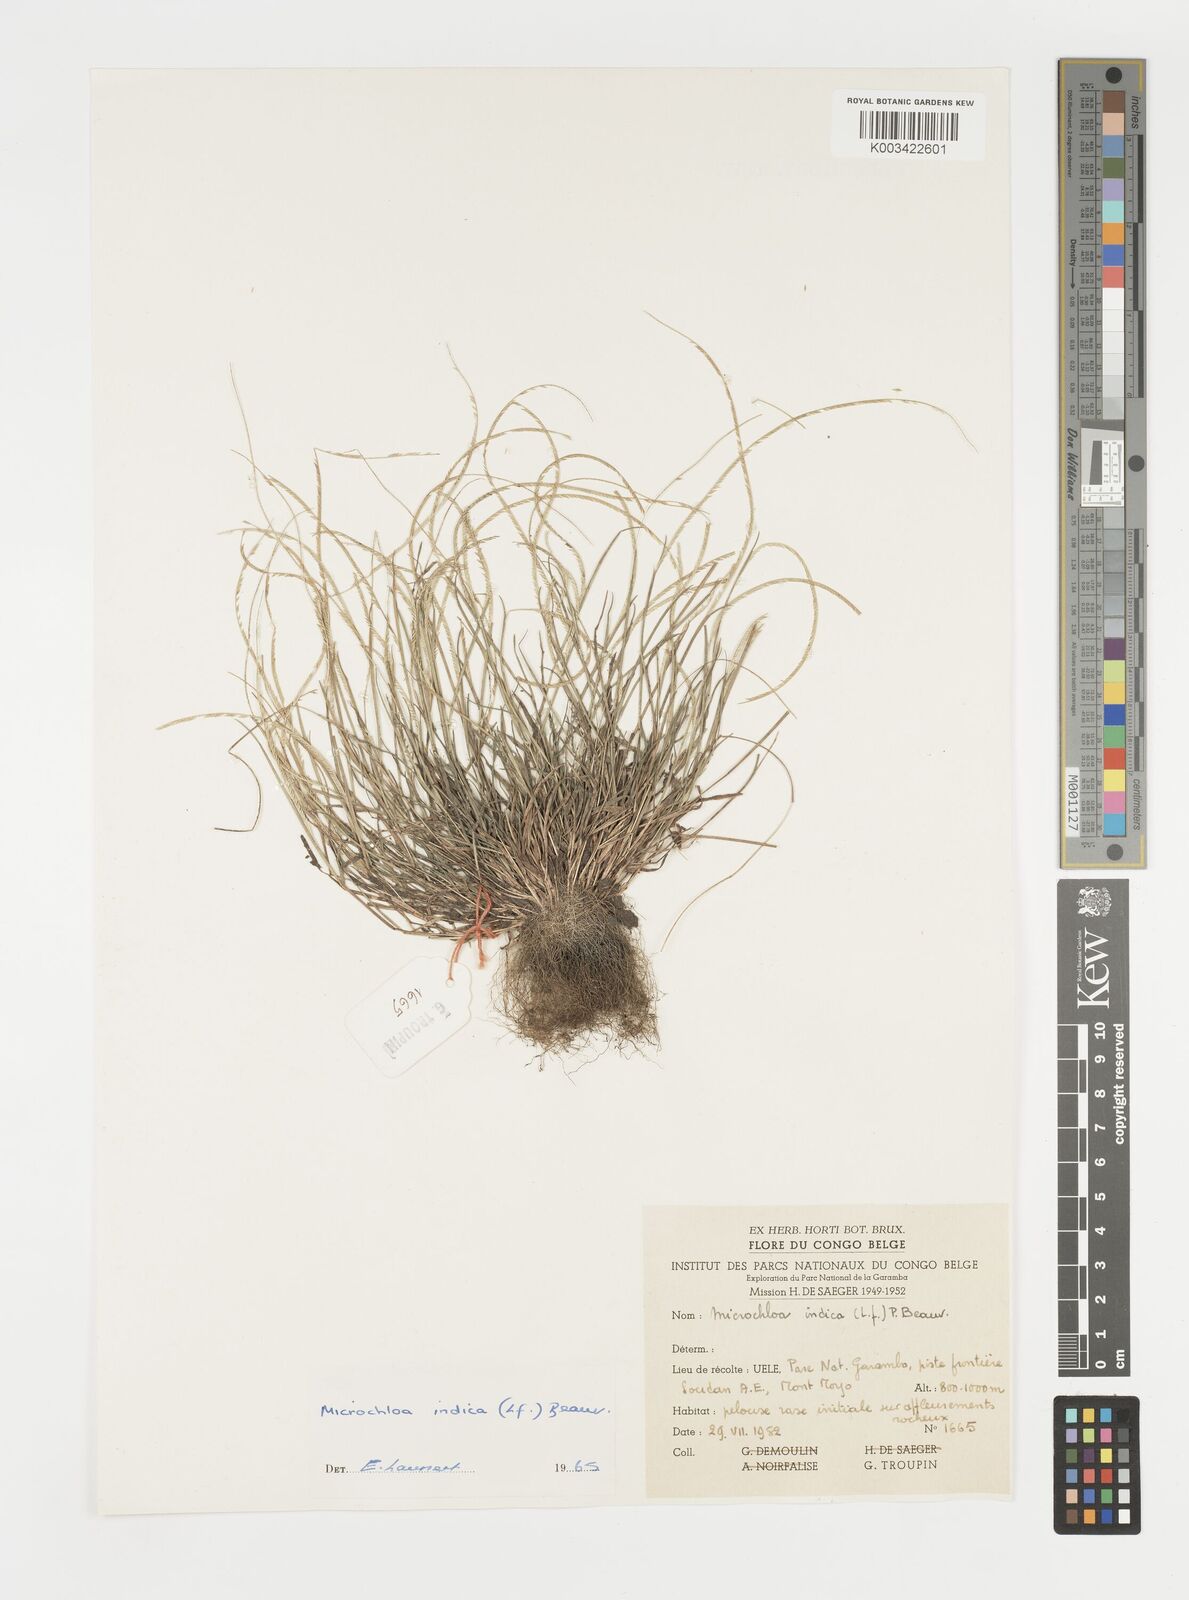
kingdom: Plantae
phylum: Tracheophyta
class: Liliopsida
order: Poales
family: Poaceae
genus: Microchloa
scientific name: Microchloa indica
